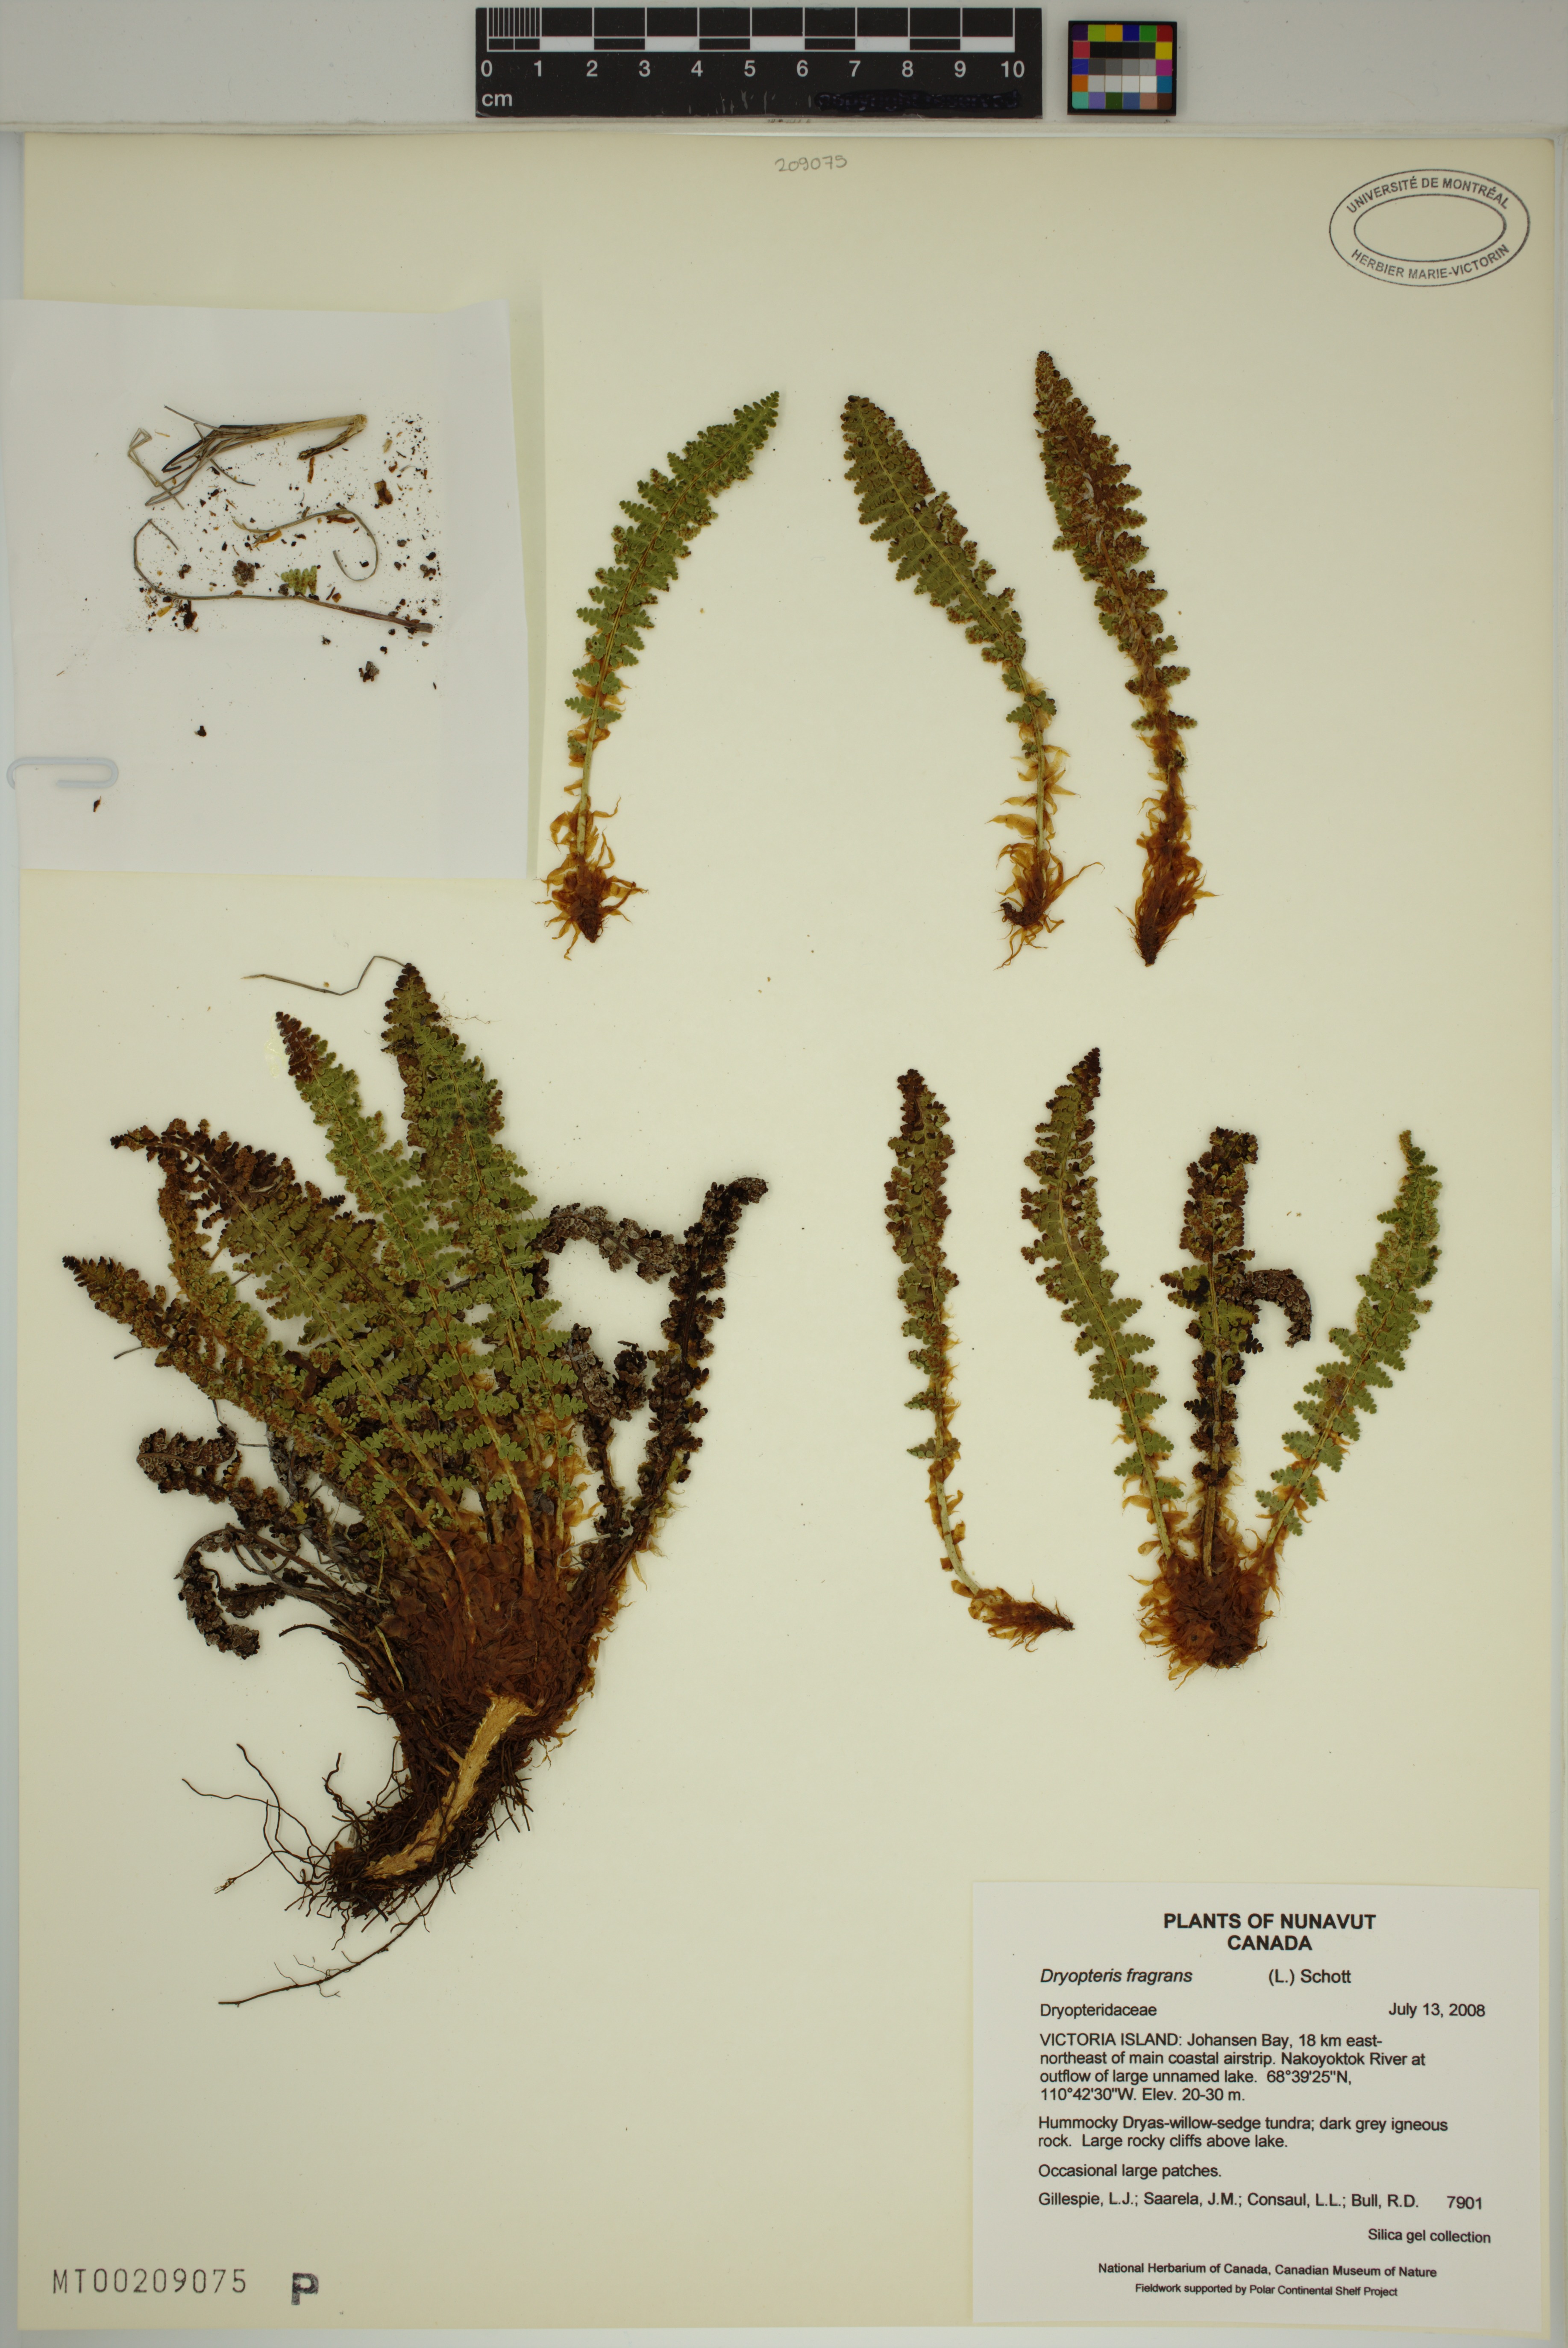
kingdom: Plantae
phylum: Tracheophyta
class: Polypodiopsida
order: Polypodiales
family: Dryopteridaceae
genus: Dryopteris
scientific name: Dryopteris fragrans
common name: Fragrant wood fern
